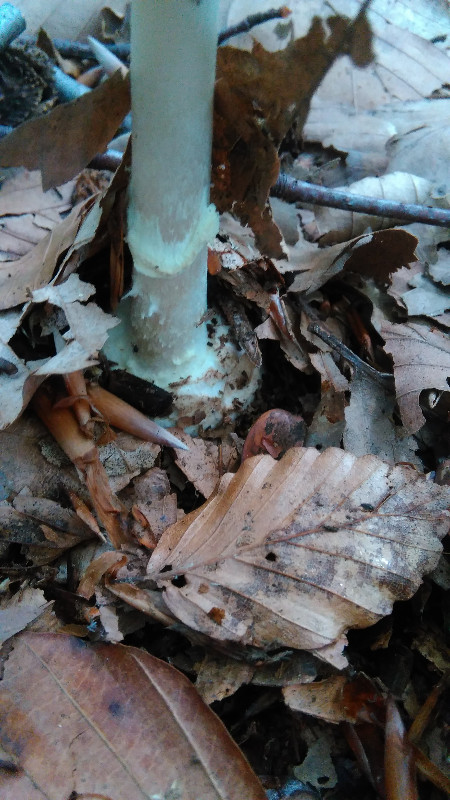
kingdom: Fungi
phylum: Basidiomycota
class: Agaricomycetes
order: Agaricales
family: Amanitaceae
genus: Amanita
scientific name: Amanita citrina
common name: kugleknoldet fluesvamp
